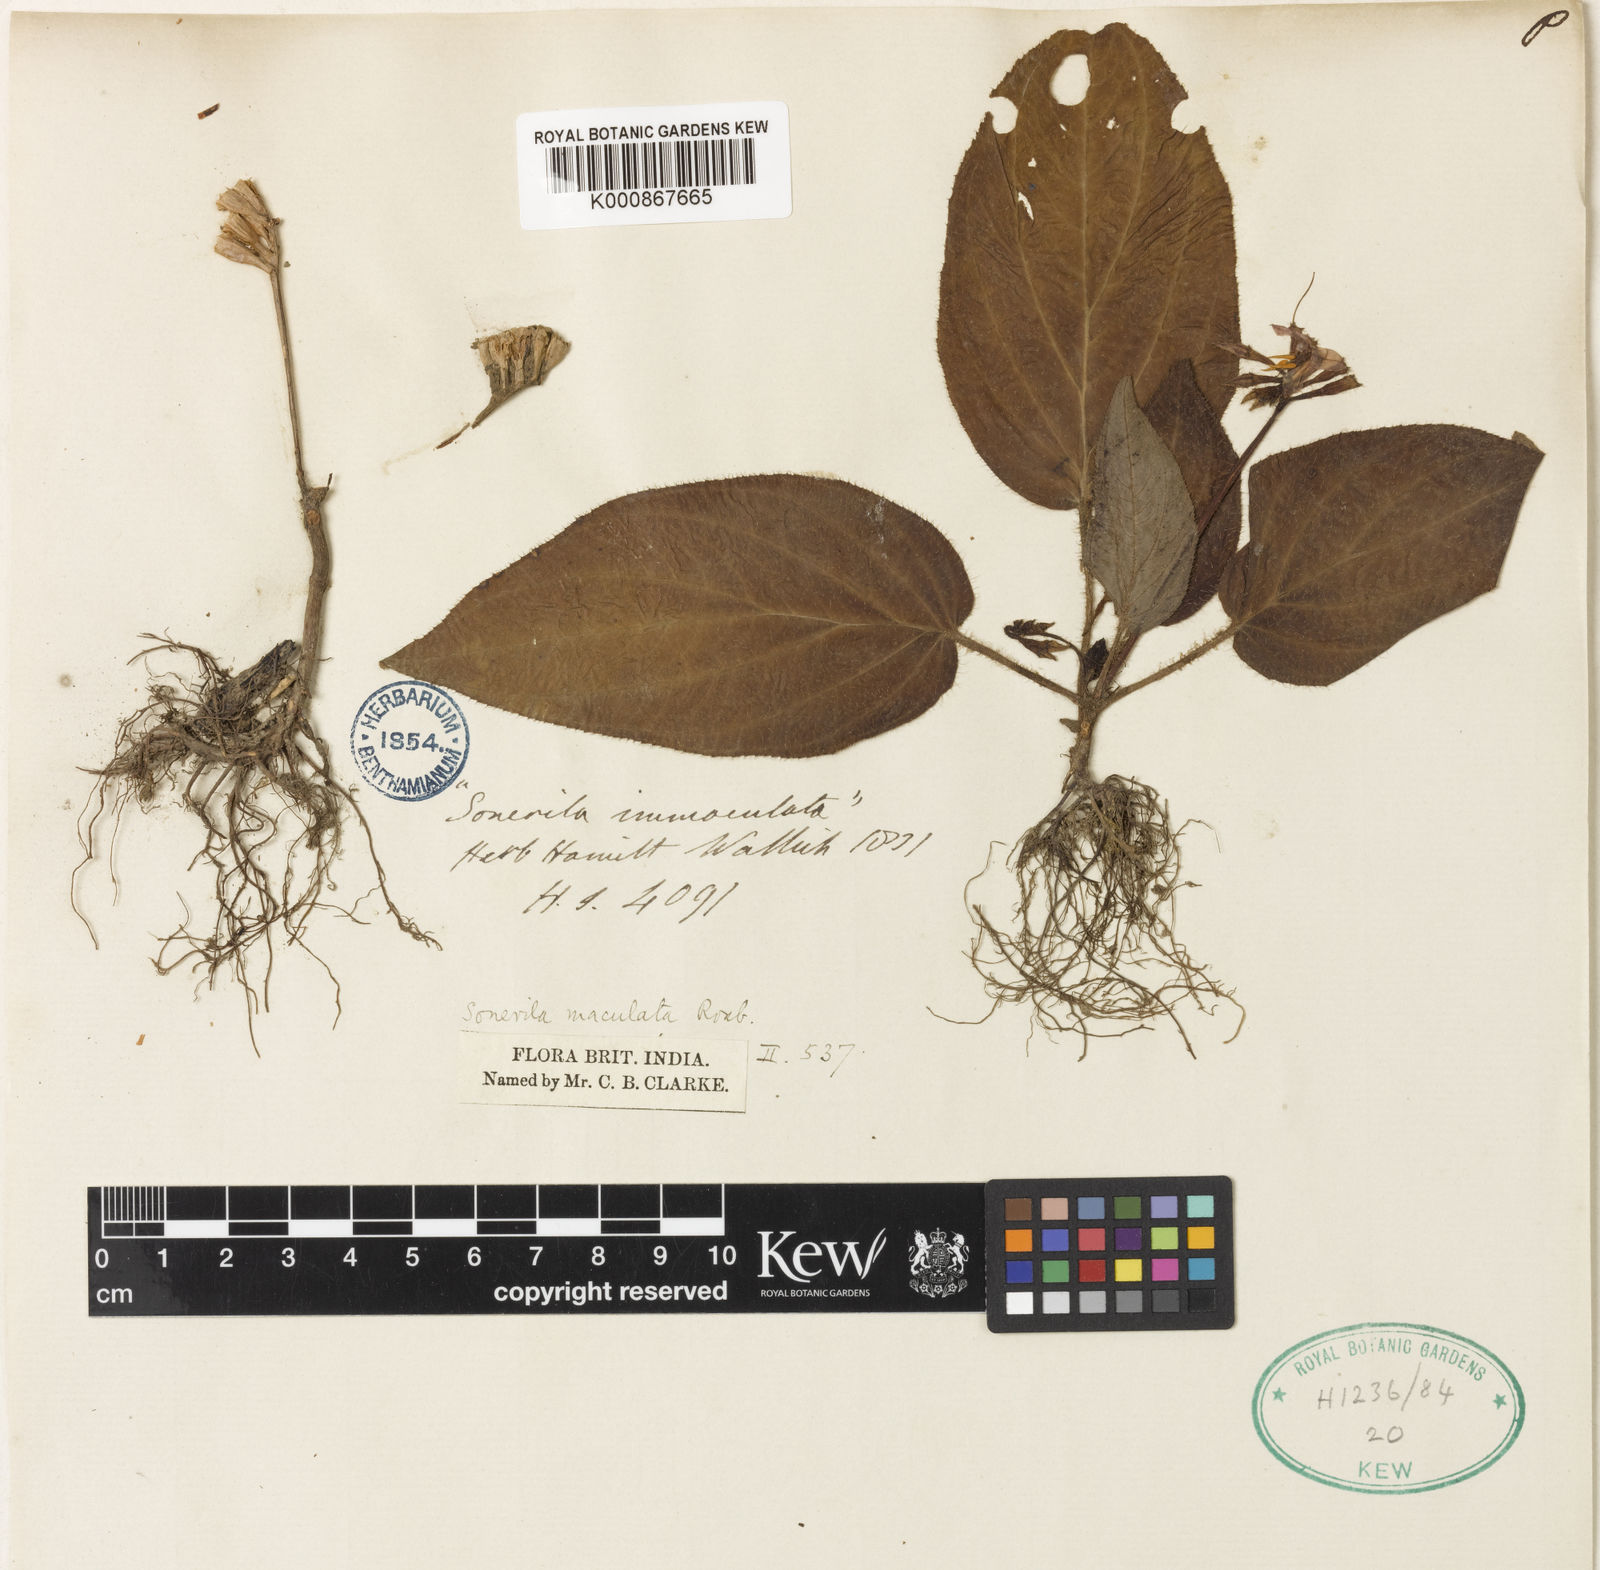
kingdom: Plantae
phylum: Tracheophyta
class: Magnoliopsida
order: Myrtales
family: Melastomataceae
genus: Sonerila
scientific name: Sonerila maculata
